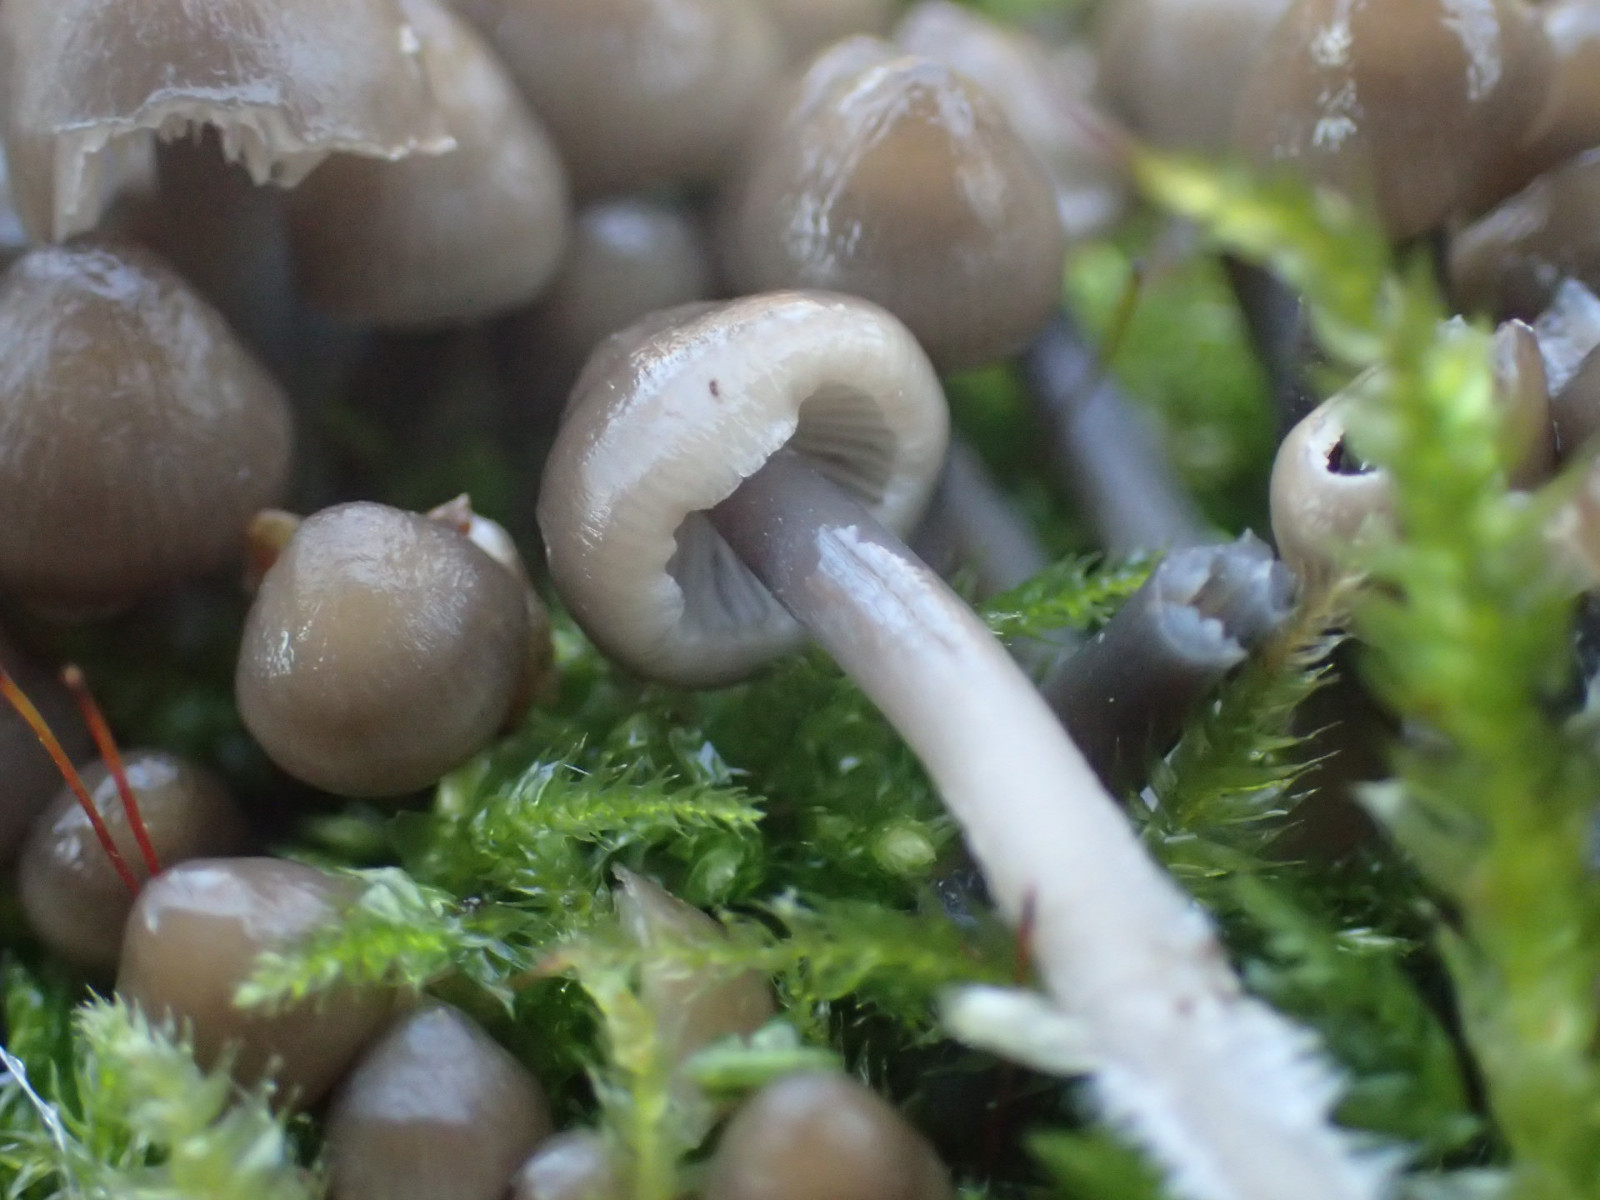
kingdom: Fungi
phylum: Basidiomycota
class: Agaricomycetes
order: Agaricales
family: Mycenaceae
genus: Mycena
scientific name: Mycena tintinnabulum
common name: vinter-huesvamp
